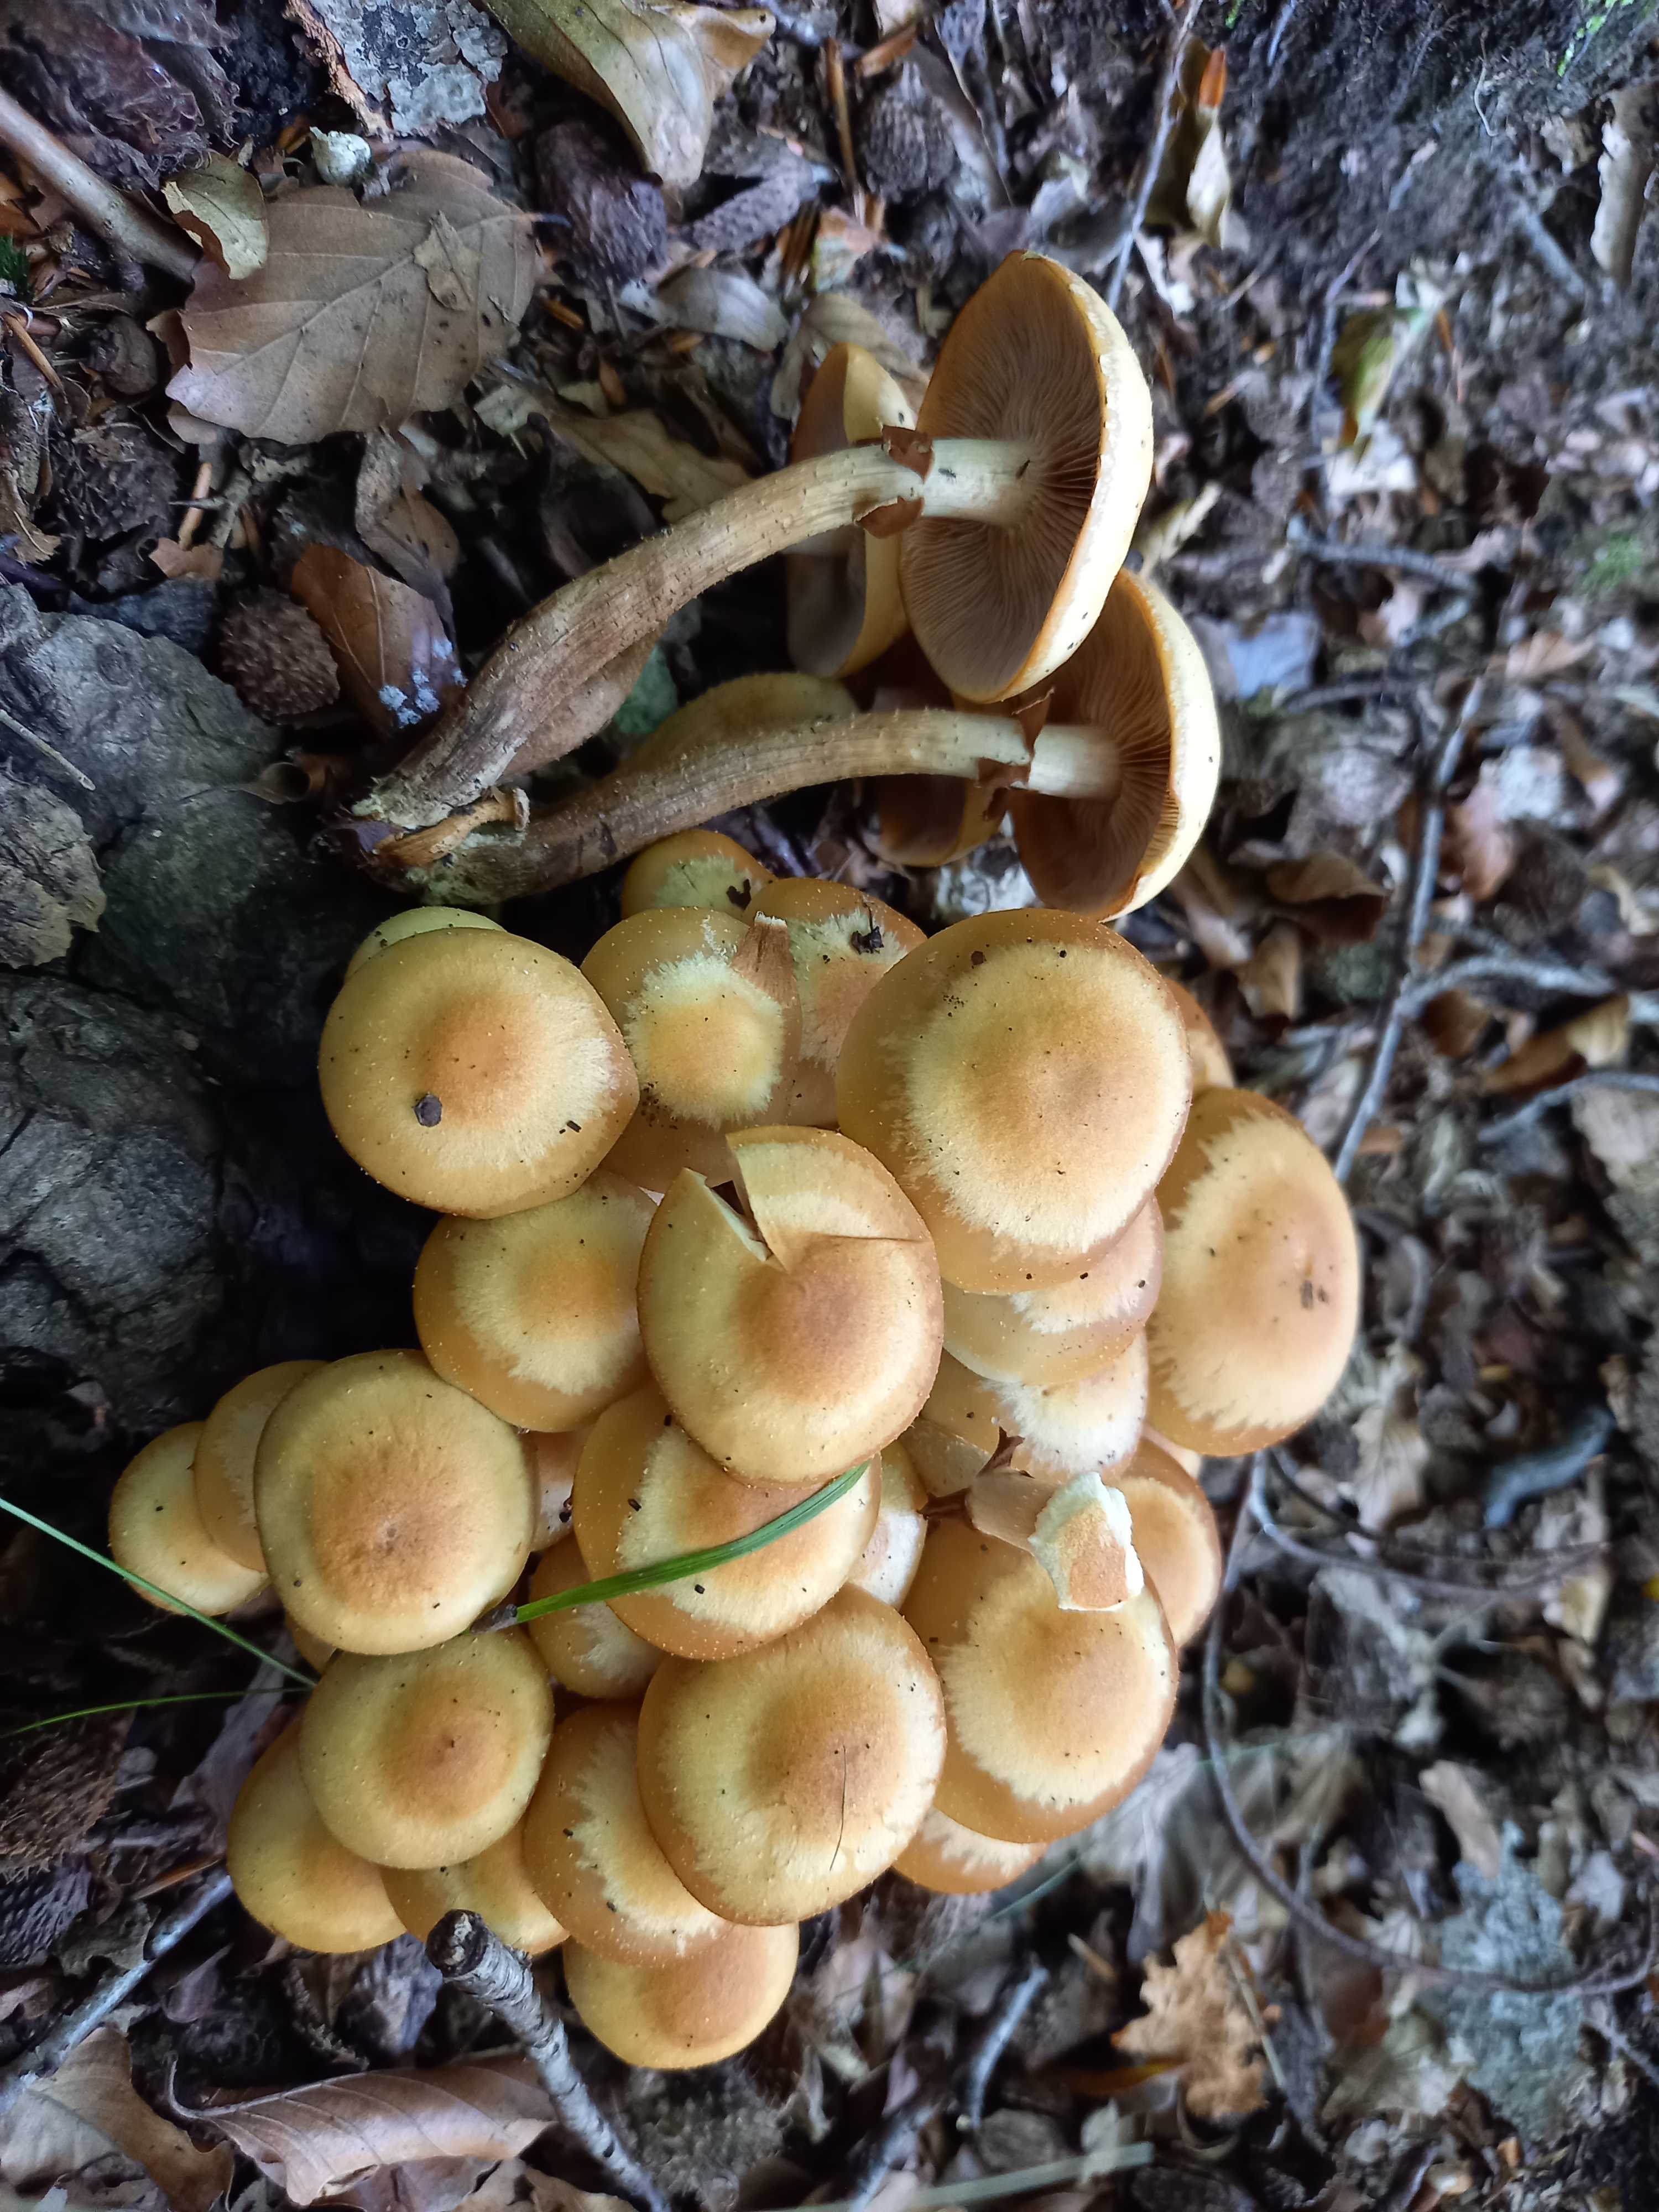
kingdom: Fungi
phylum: Basidiomycota
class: Agaricomycetes
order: Agaricales
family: Strophariaceae
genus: Kuehneromyces
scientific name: Kuehneromyces mutabilis
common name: foranderlig skælhat
